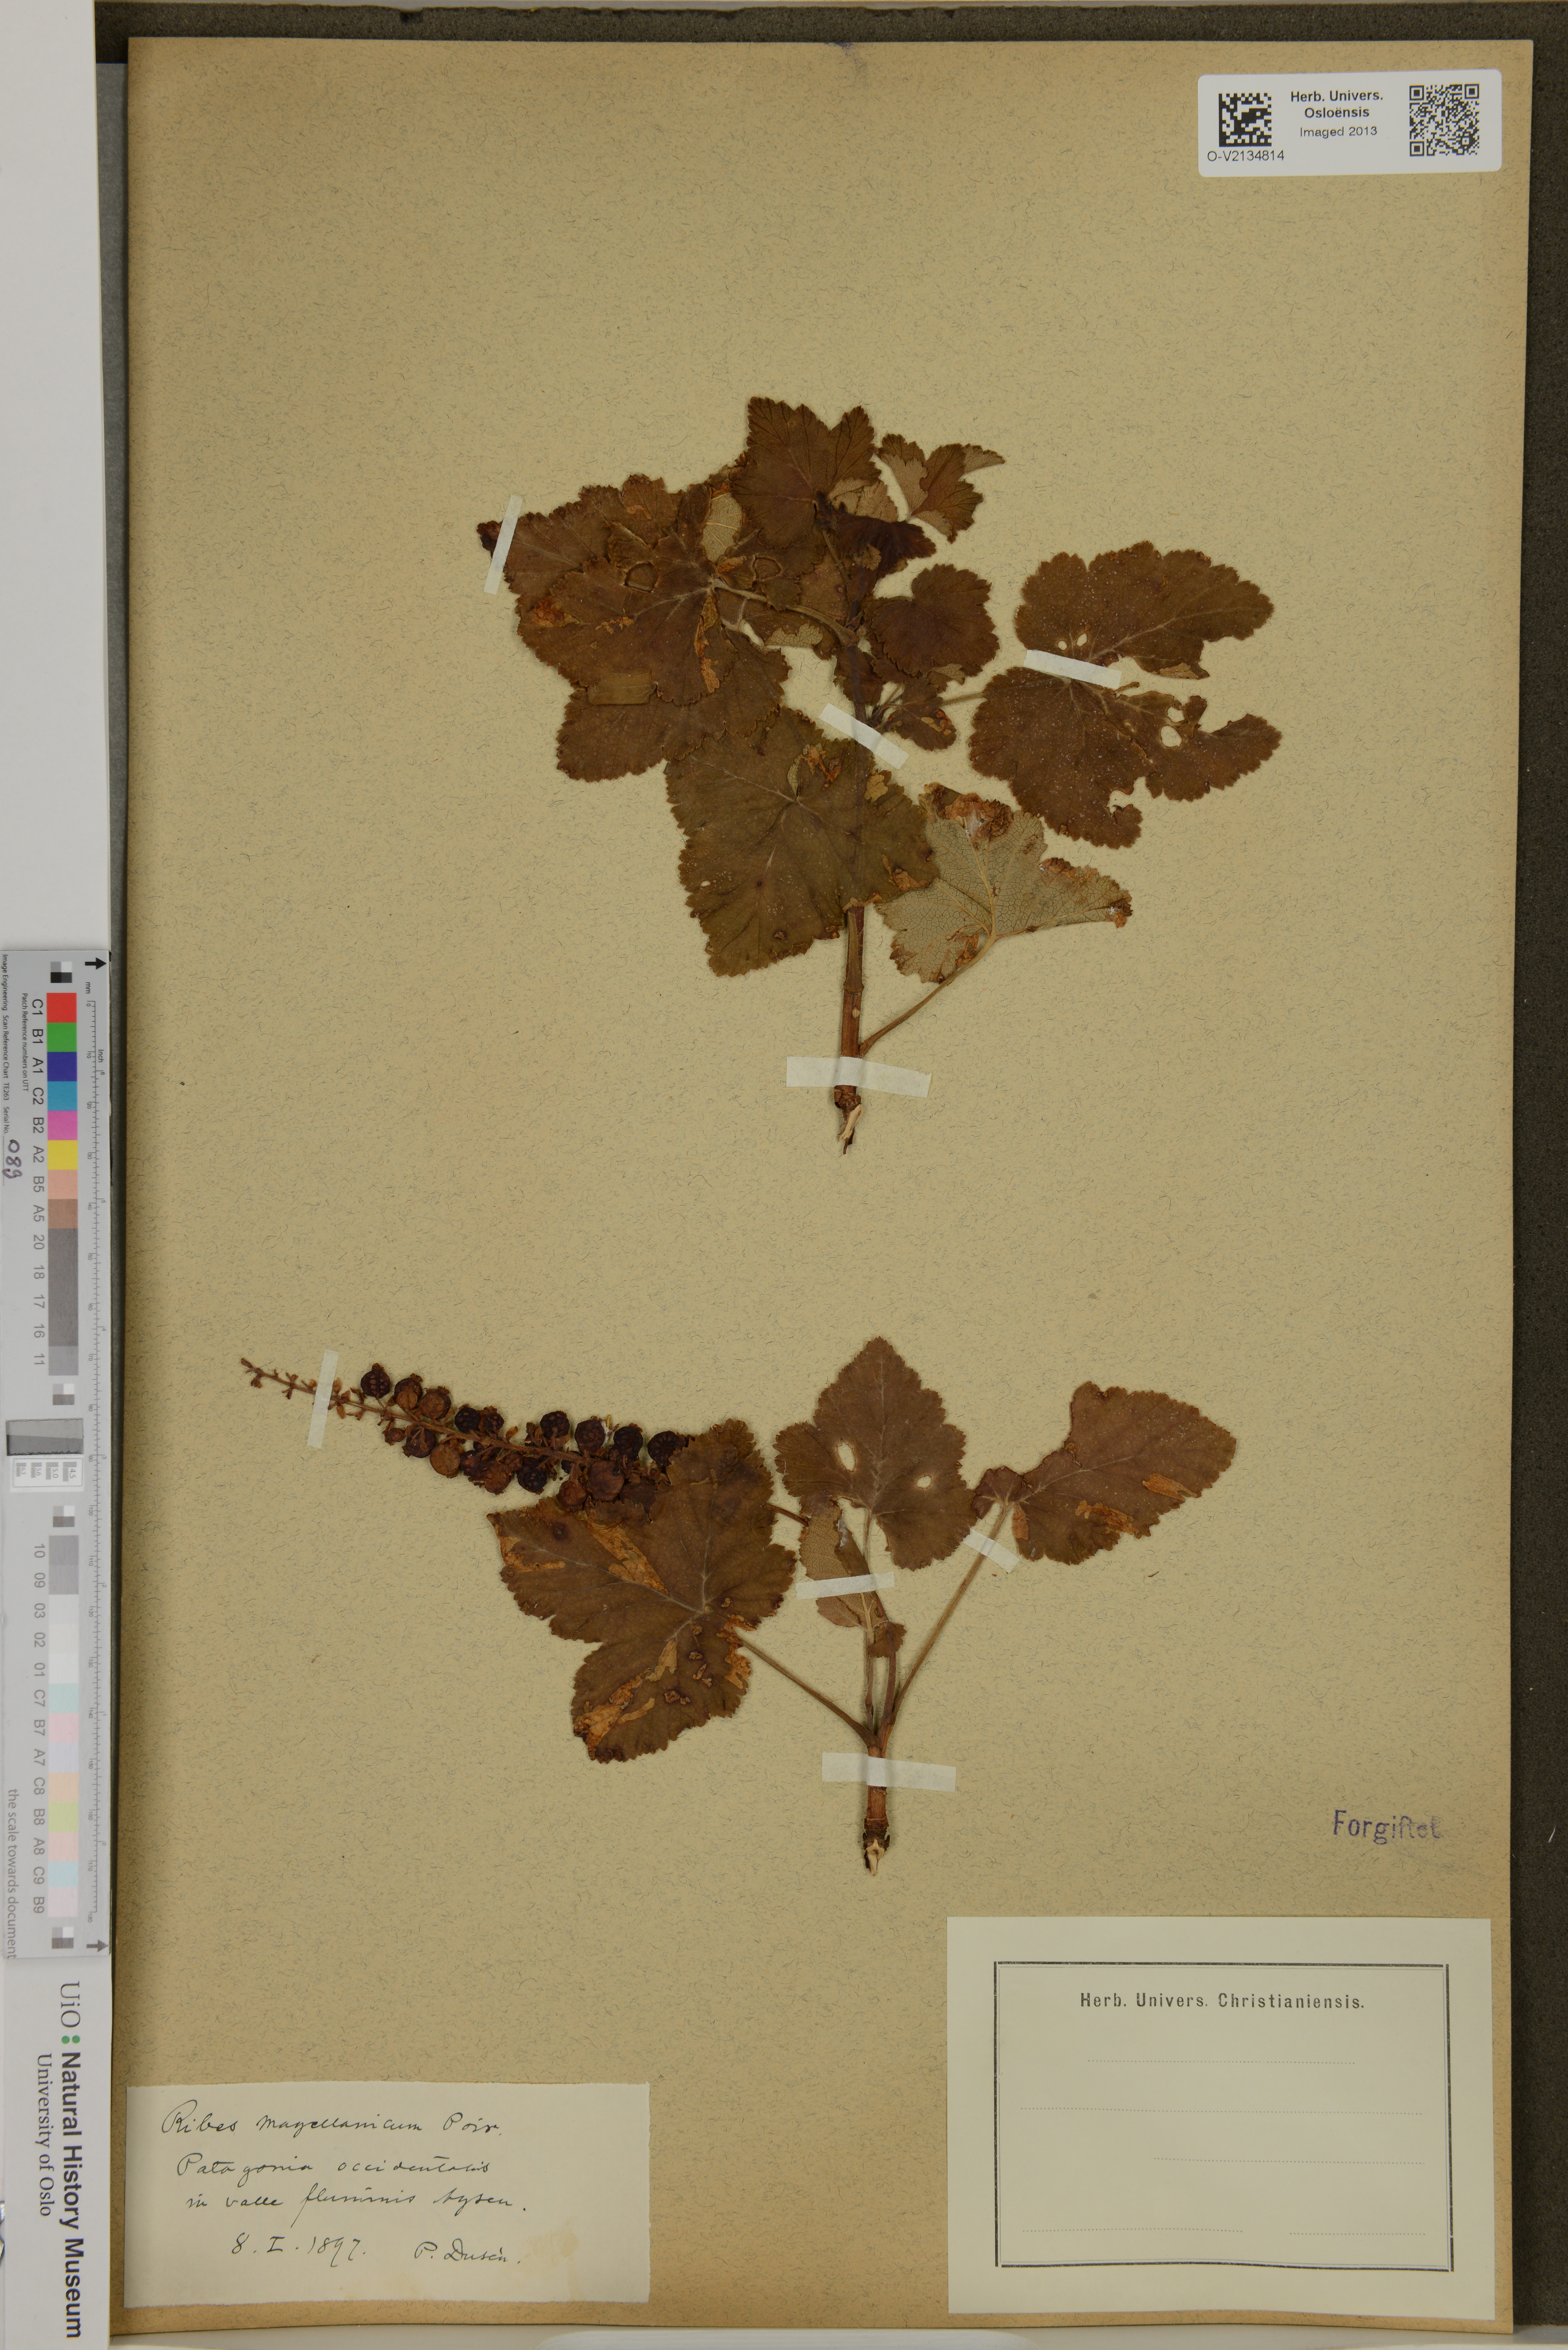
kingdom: Plantae
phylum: Tracheophyta
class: Magnoliopsida
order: Saxifragales
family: Grossulariaceae
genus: Ribes
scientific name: Ribes magellanicum
